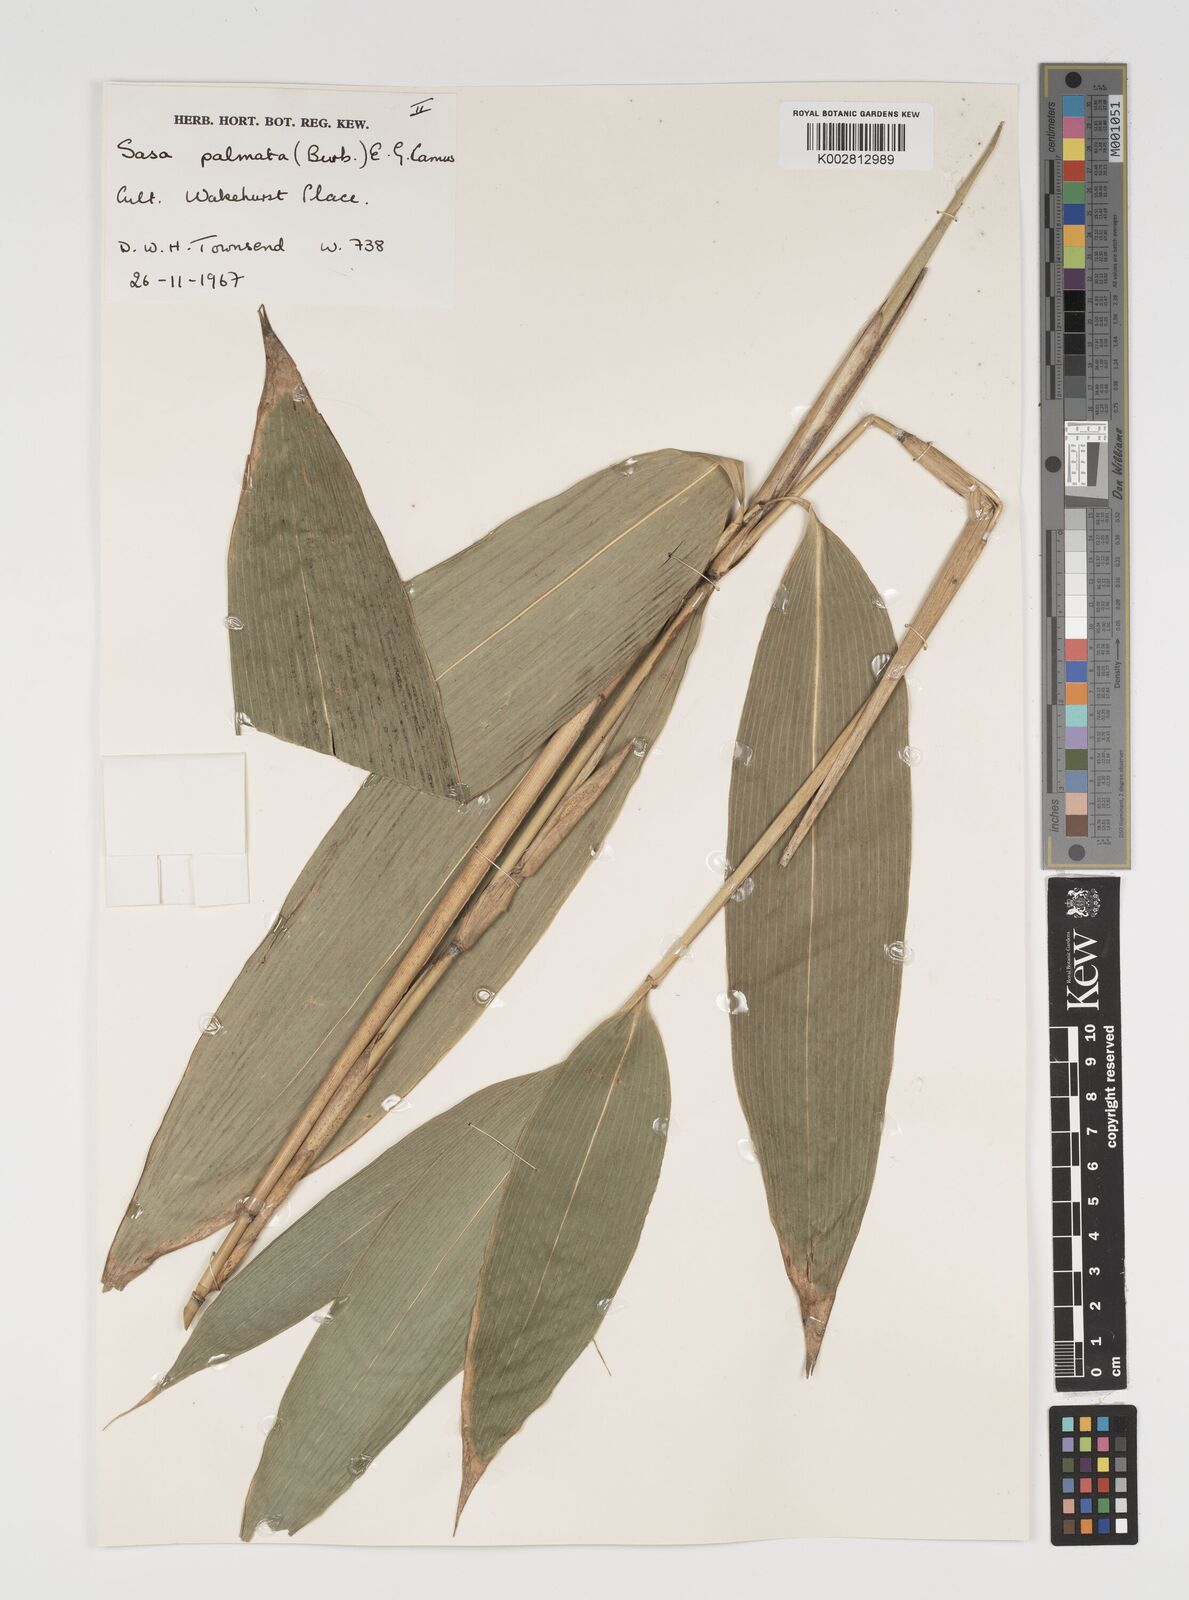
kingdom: Plantae
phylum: Tracheophyta
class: Liliopsida
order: Poales
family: Poaceae
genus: Sasa
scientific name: Sasa palmata
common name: Broad-leaved bamboo
